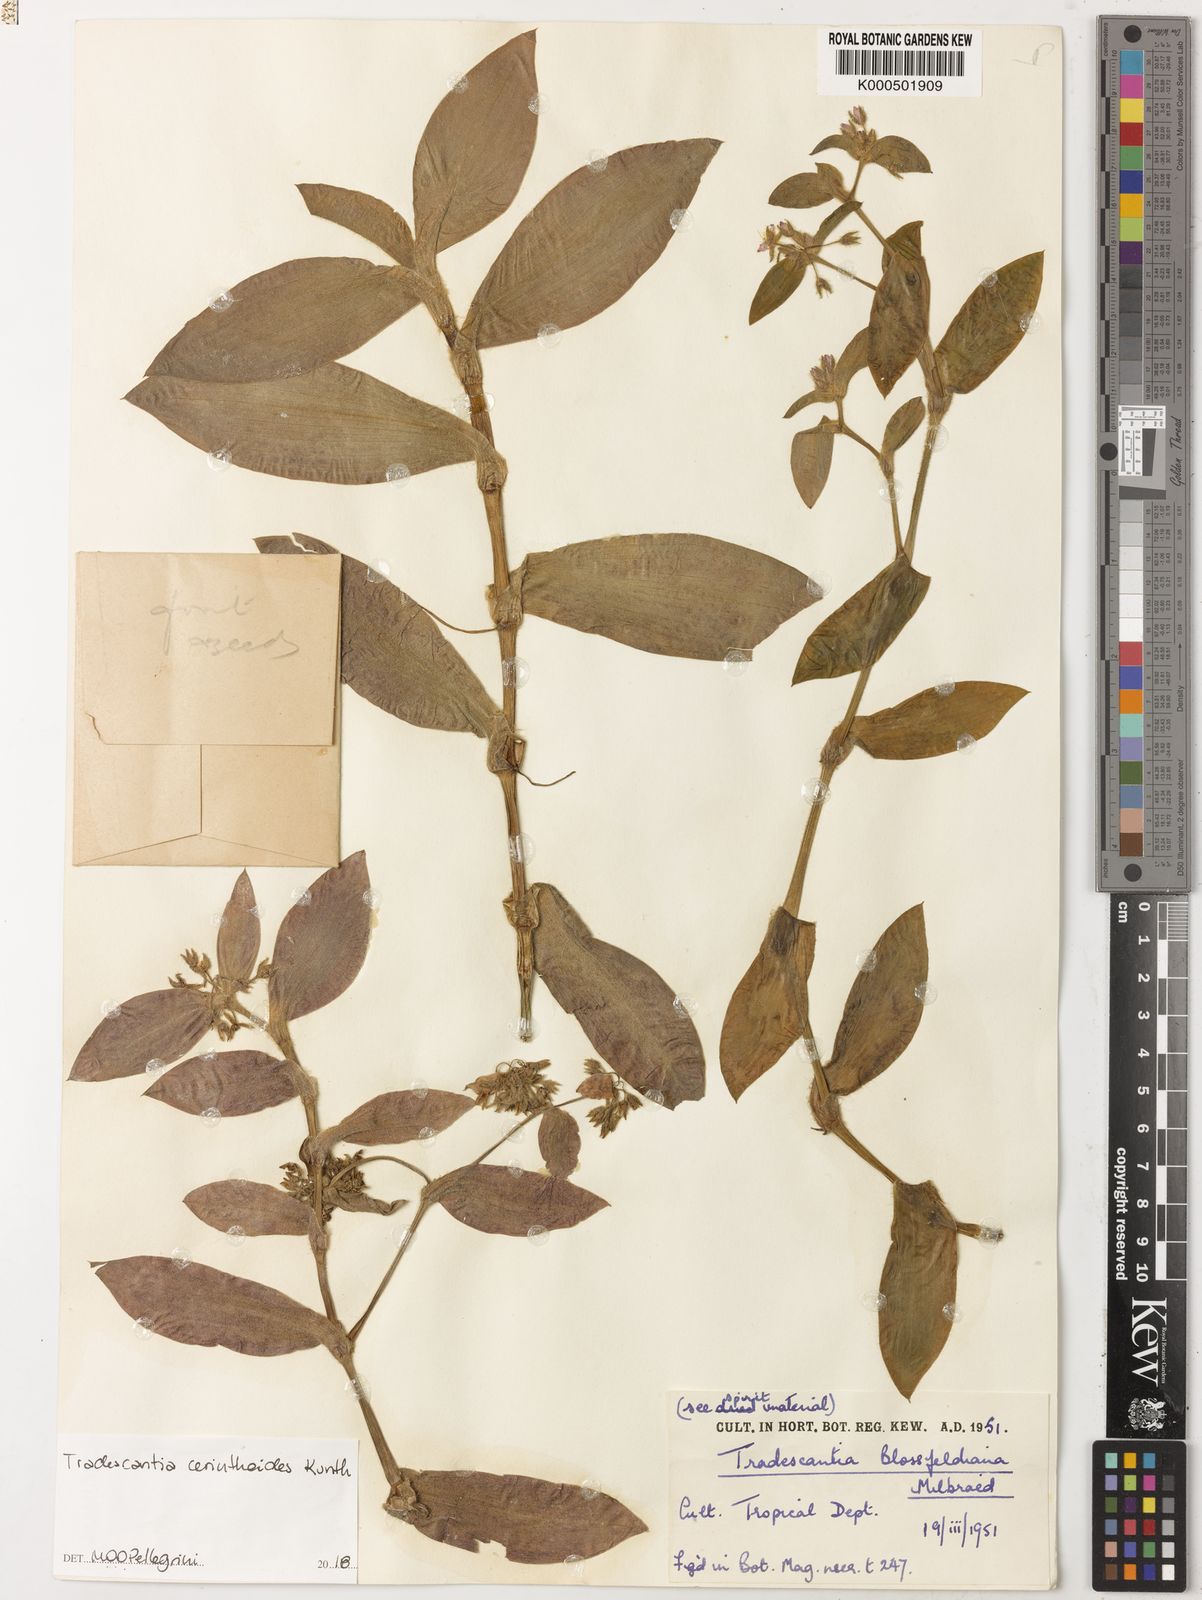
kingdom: Plantae
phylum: Tracheophyta
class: Liliopsida
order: Commelinales
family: Commelinaceae
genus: Tradescantia
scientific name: Tradescantia cerinthoides
